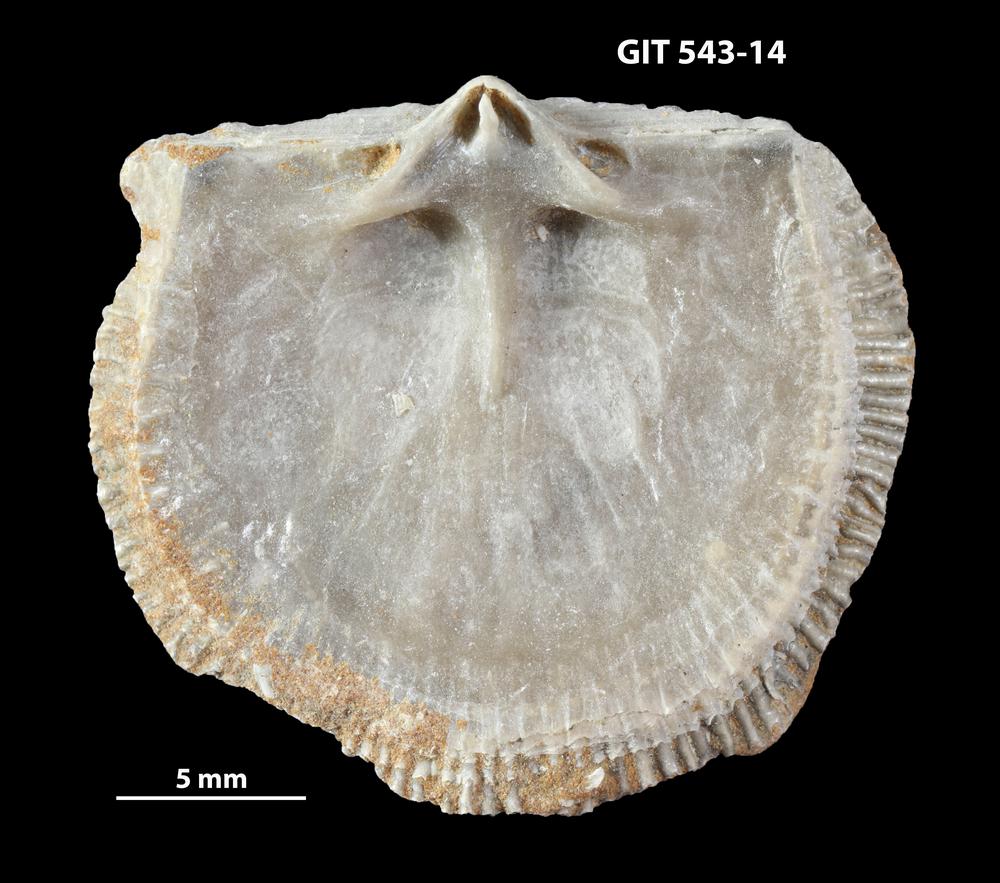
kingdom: Animalia
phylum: Brachiopoda
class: Rhynchonellata
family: Clitambonitidae
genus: Clitambonites
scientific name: Clitambonites
